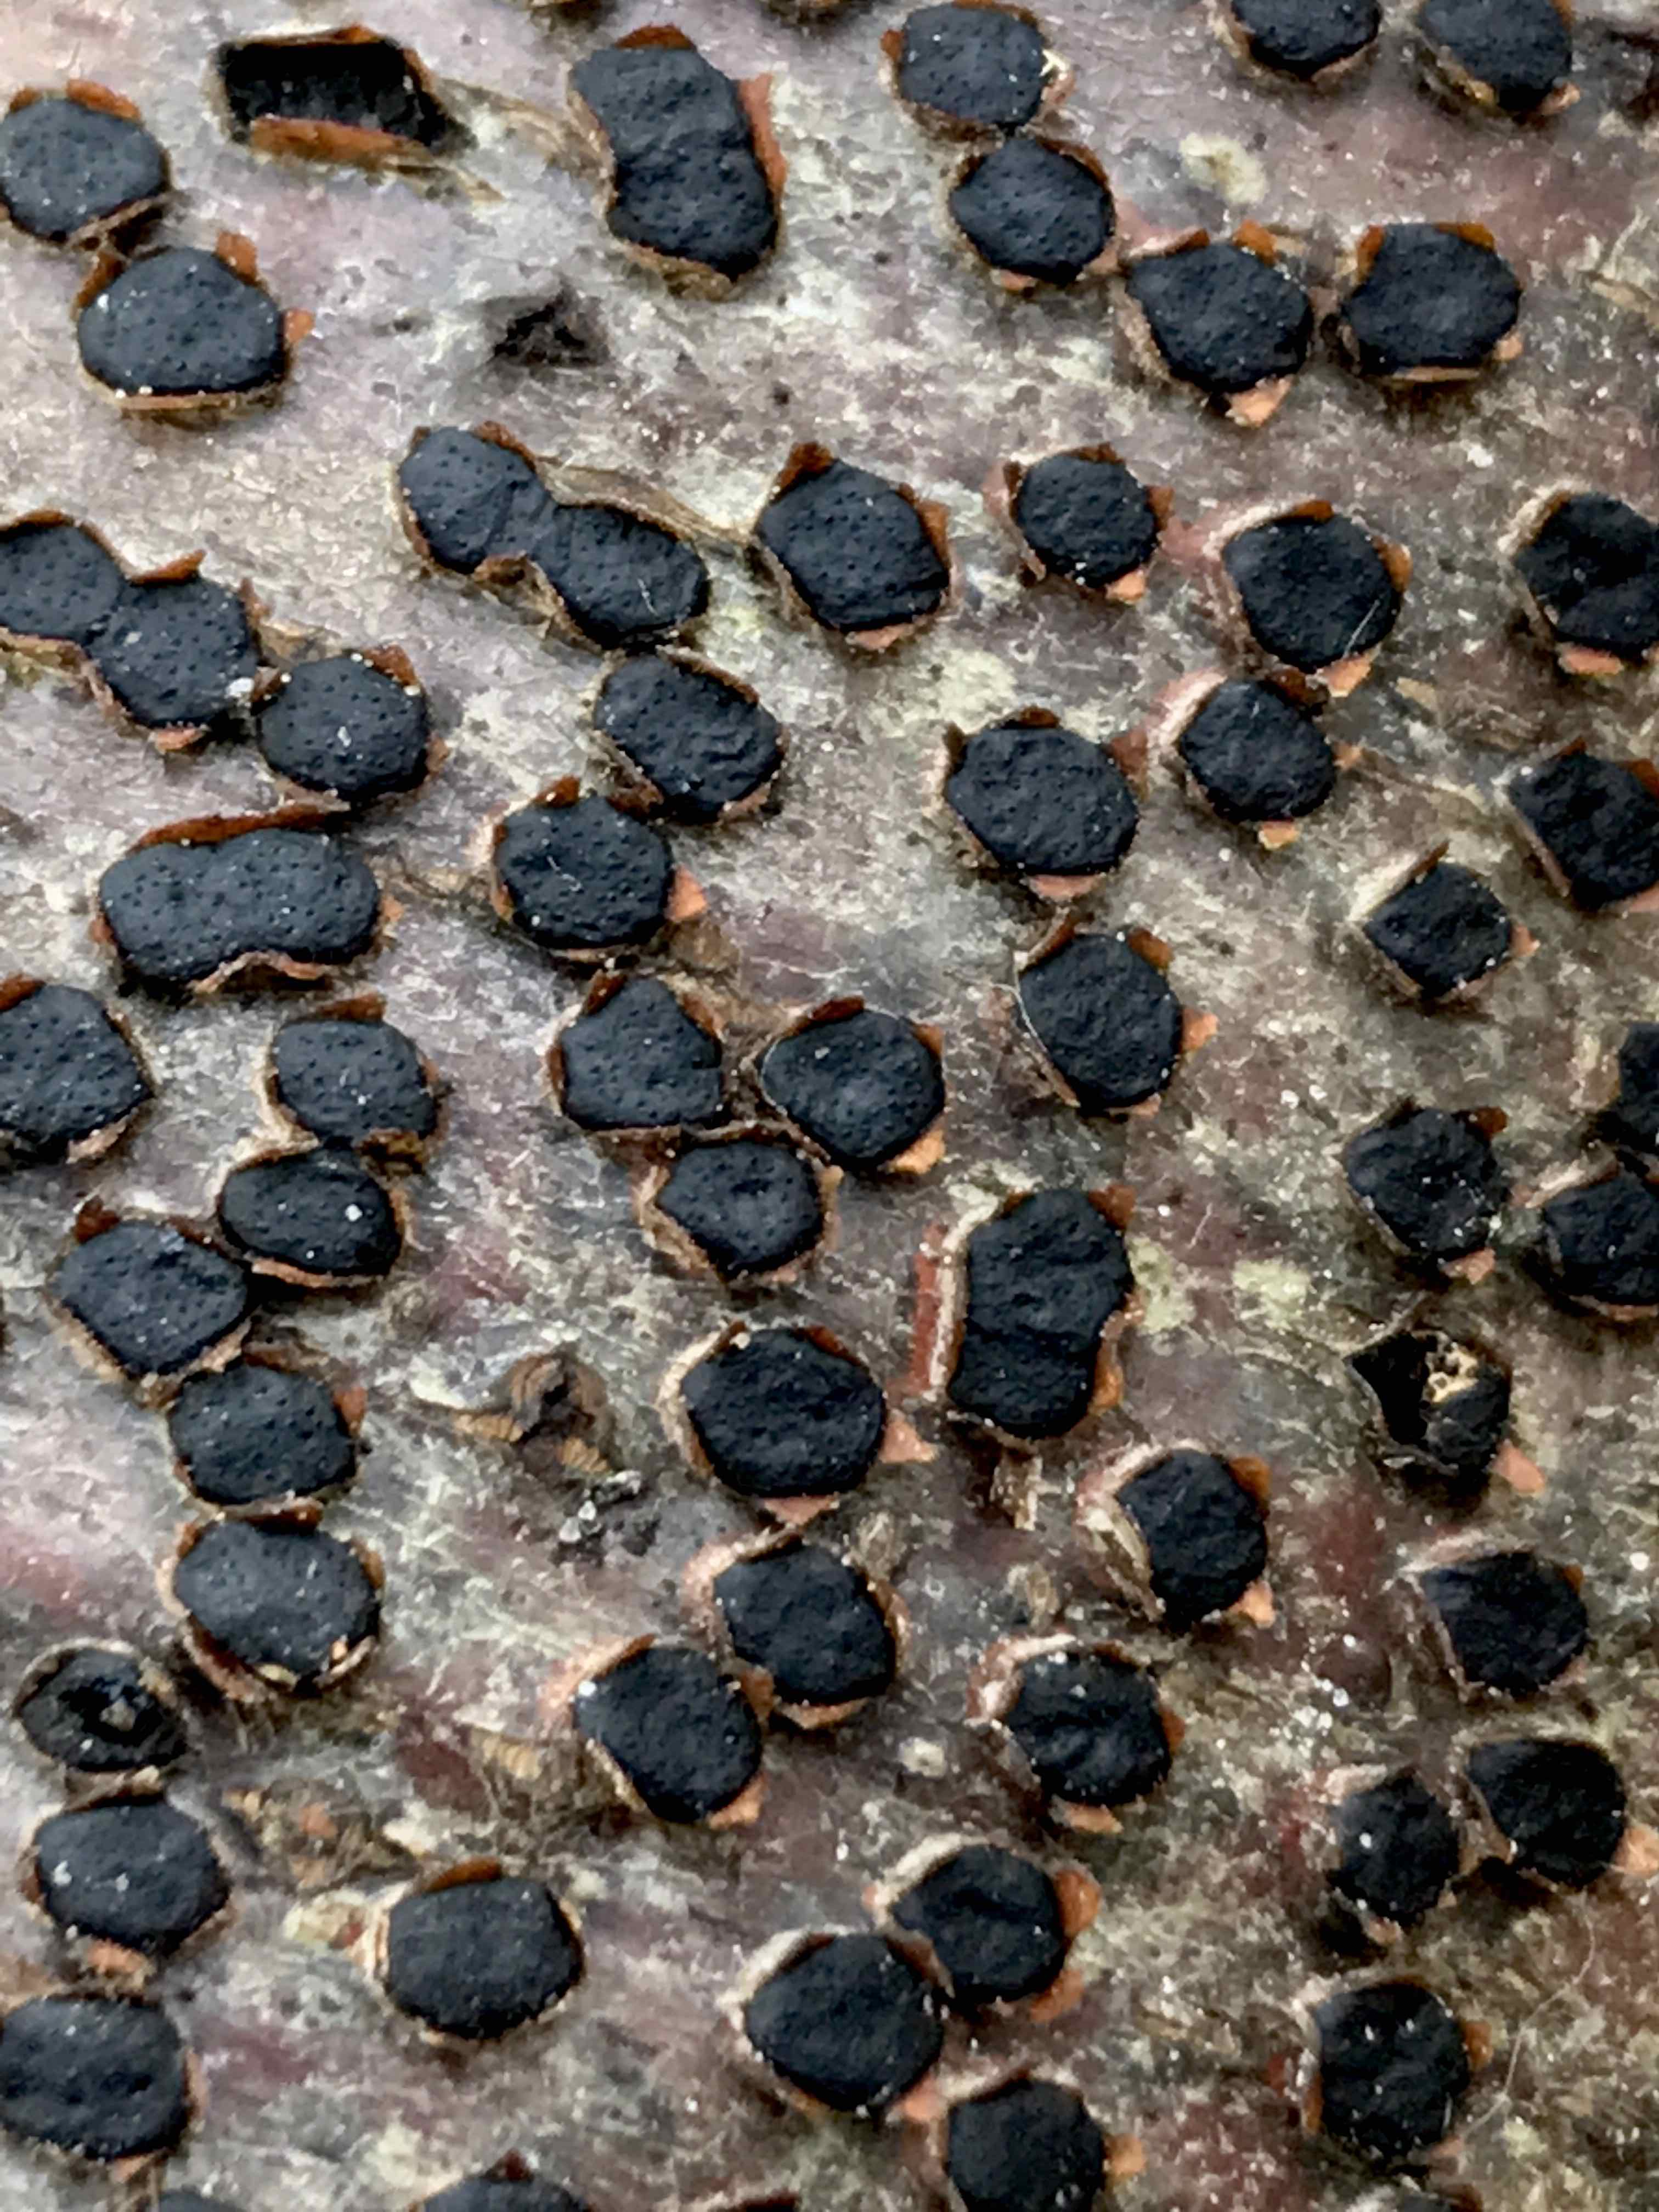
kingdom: Fungi
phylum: Ascomycota
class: Sordariomycetes
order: Xylariales
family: Diatrypaceae
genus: Diatrype
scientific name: Diatrype disciformis
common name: kant-kulskorpe
